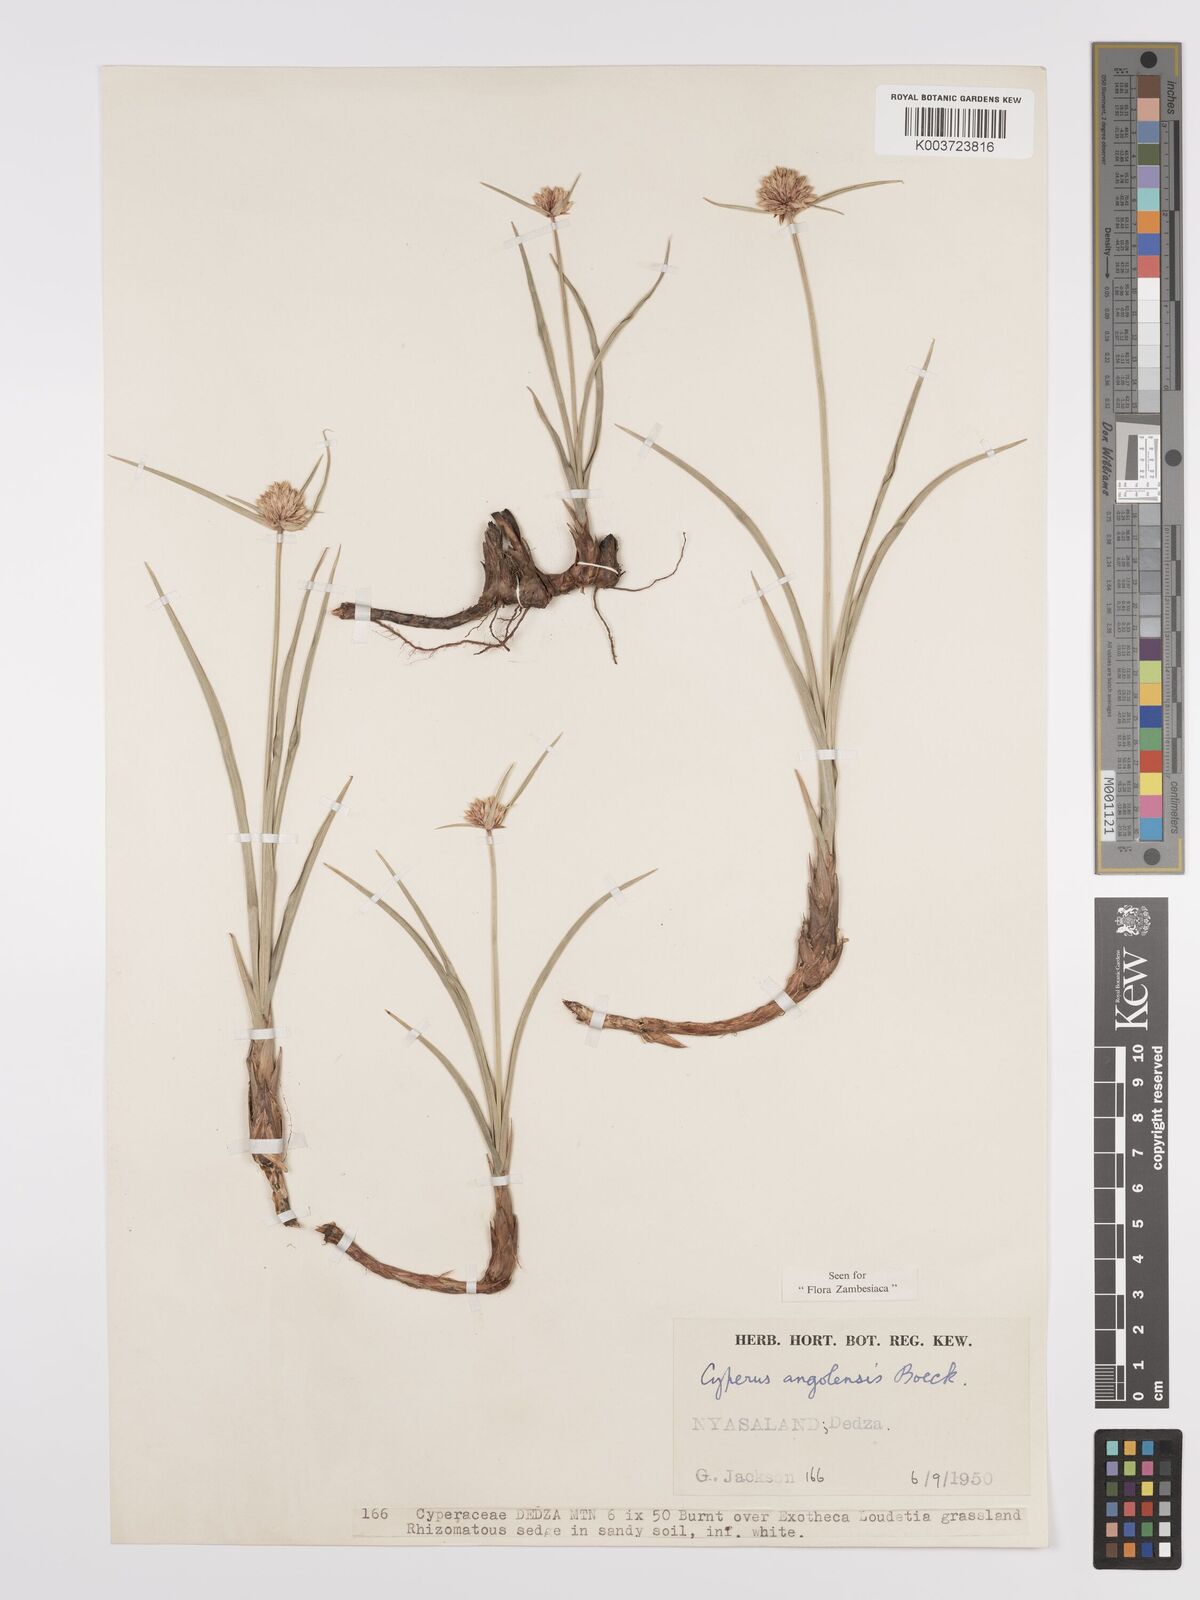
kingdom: Plantae
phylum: Tracheophyta
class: Liliopsida
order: Poales
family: Cyperaceae
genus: Cyperus
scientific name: Cyperus angolensis
